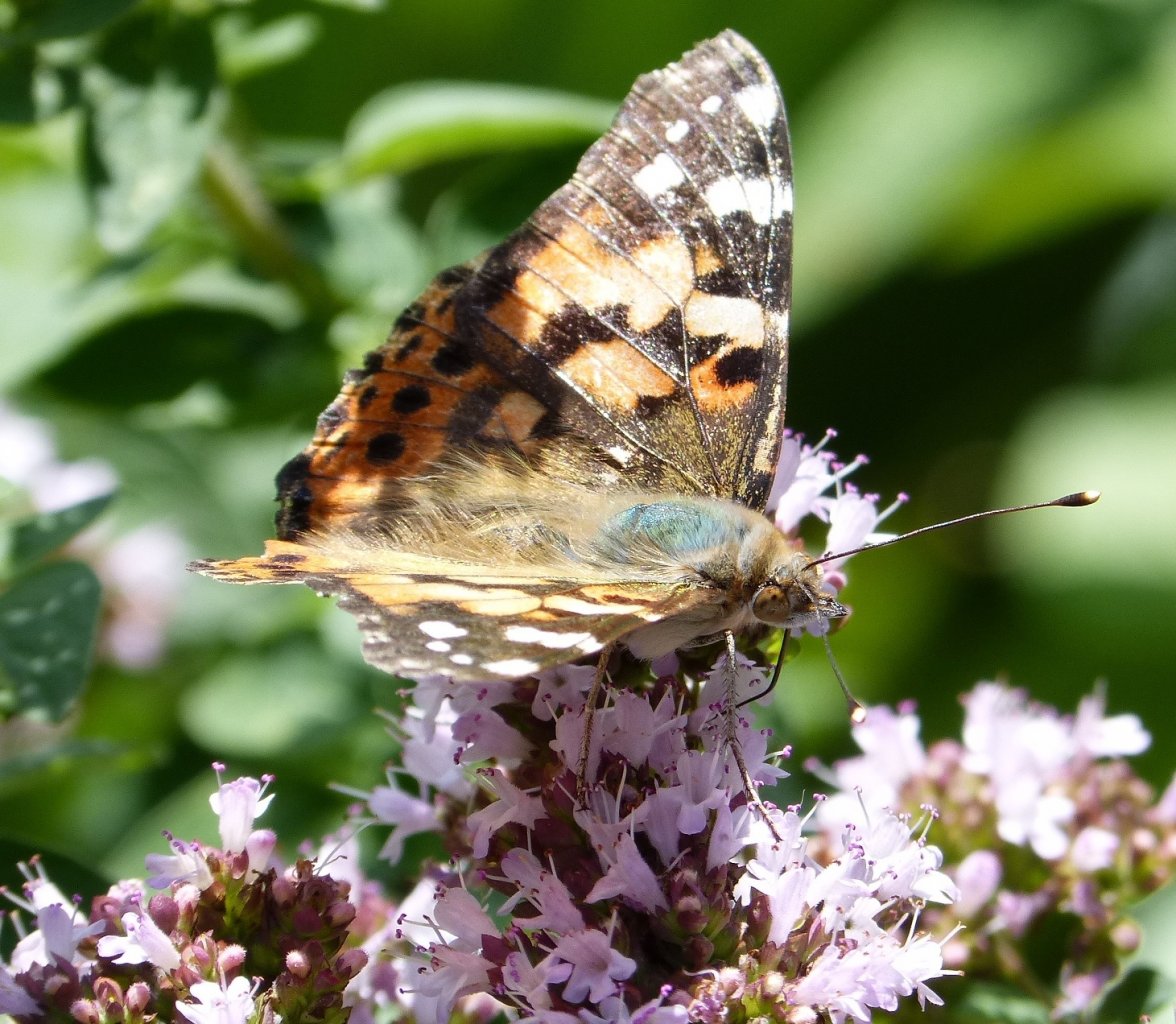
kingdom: Animalia
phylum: Arthropoda
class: Insecta
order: Lepidoptera
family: Nymphalidae
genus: Vanessa
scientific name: Vanessa cardui
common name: Painted Lady
